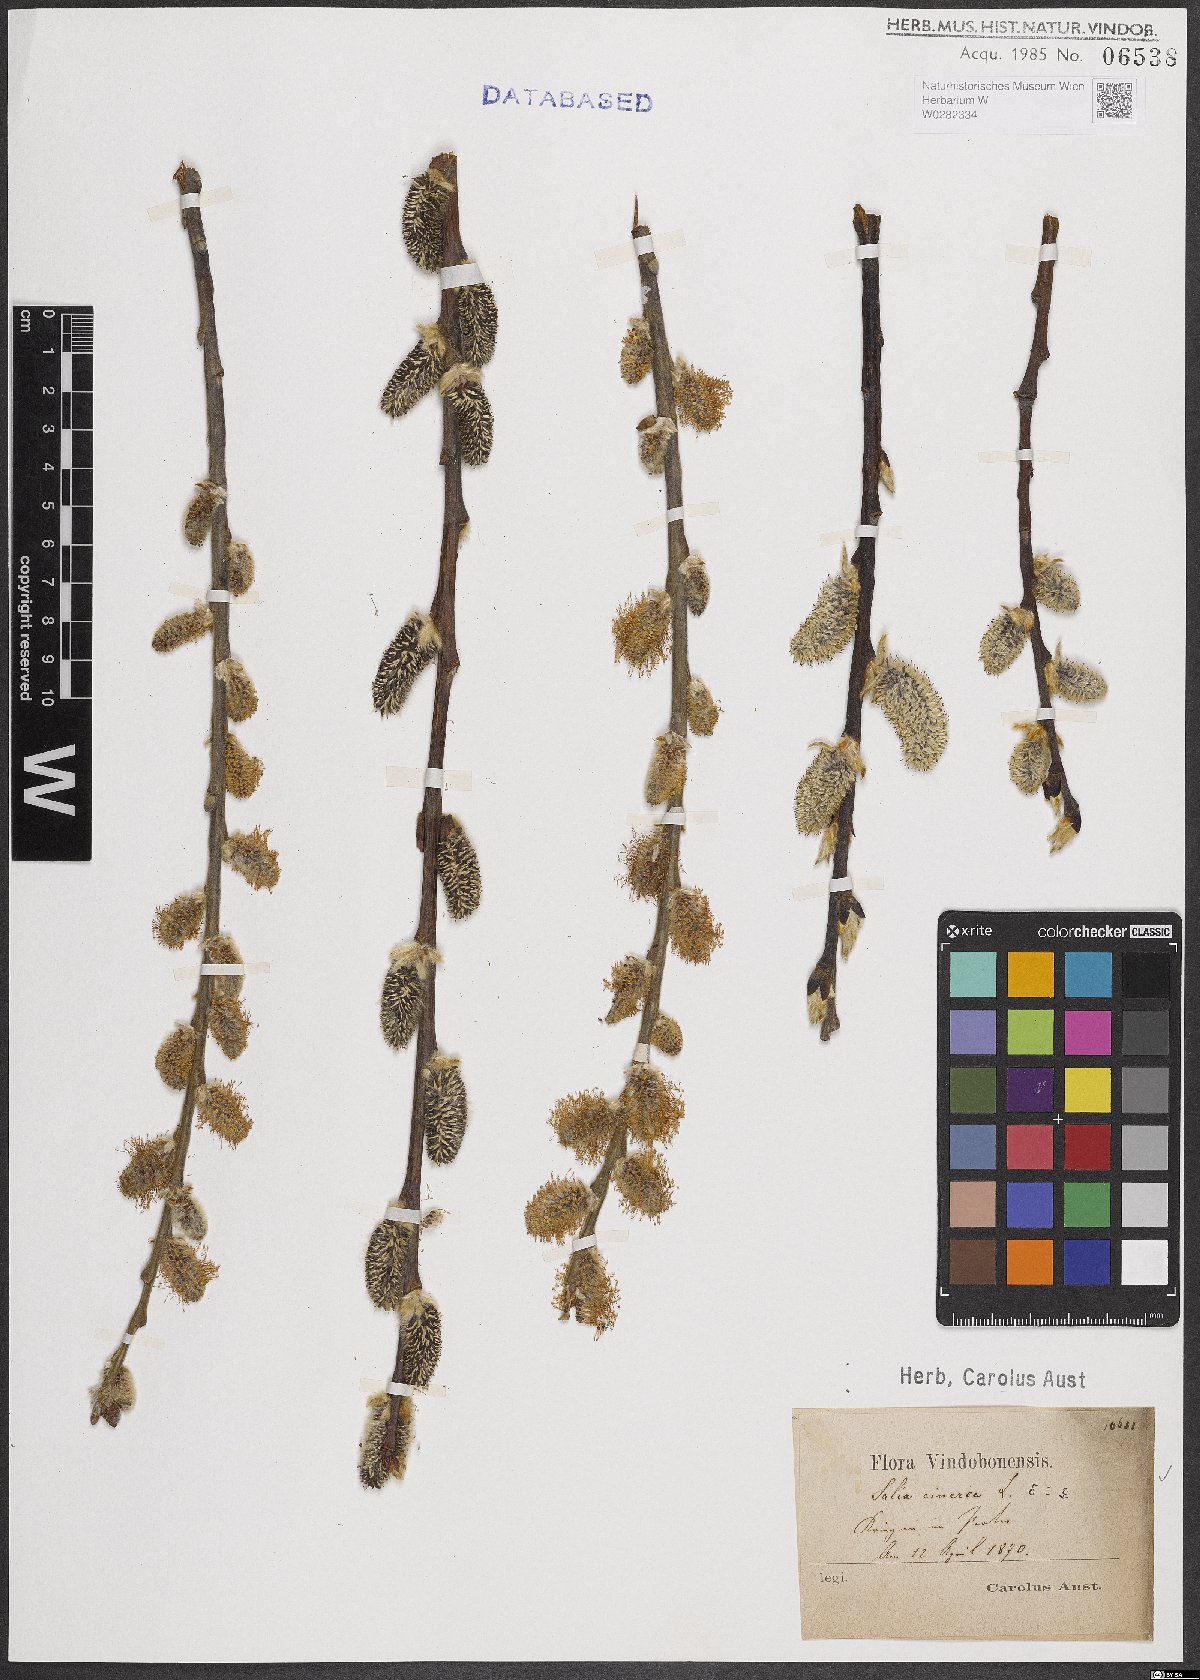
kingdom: Plantae
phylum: Tracheophyta
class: Magnoliopsida
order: Malpighiales
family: Salicaceae
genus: Salix
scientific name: Salix cinerea
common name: Common sallow
